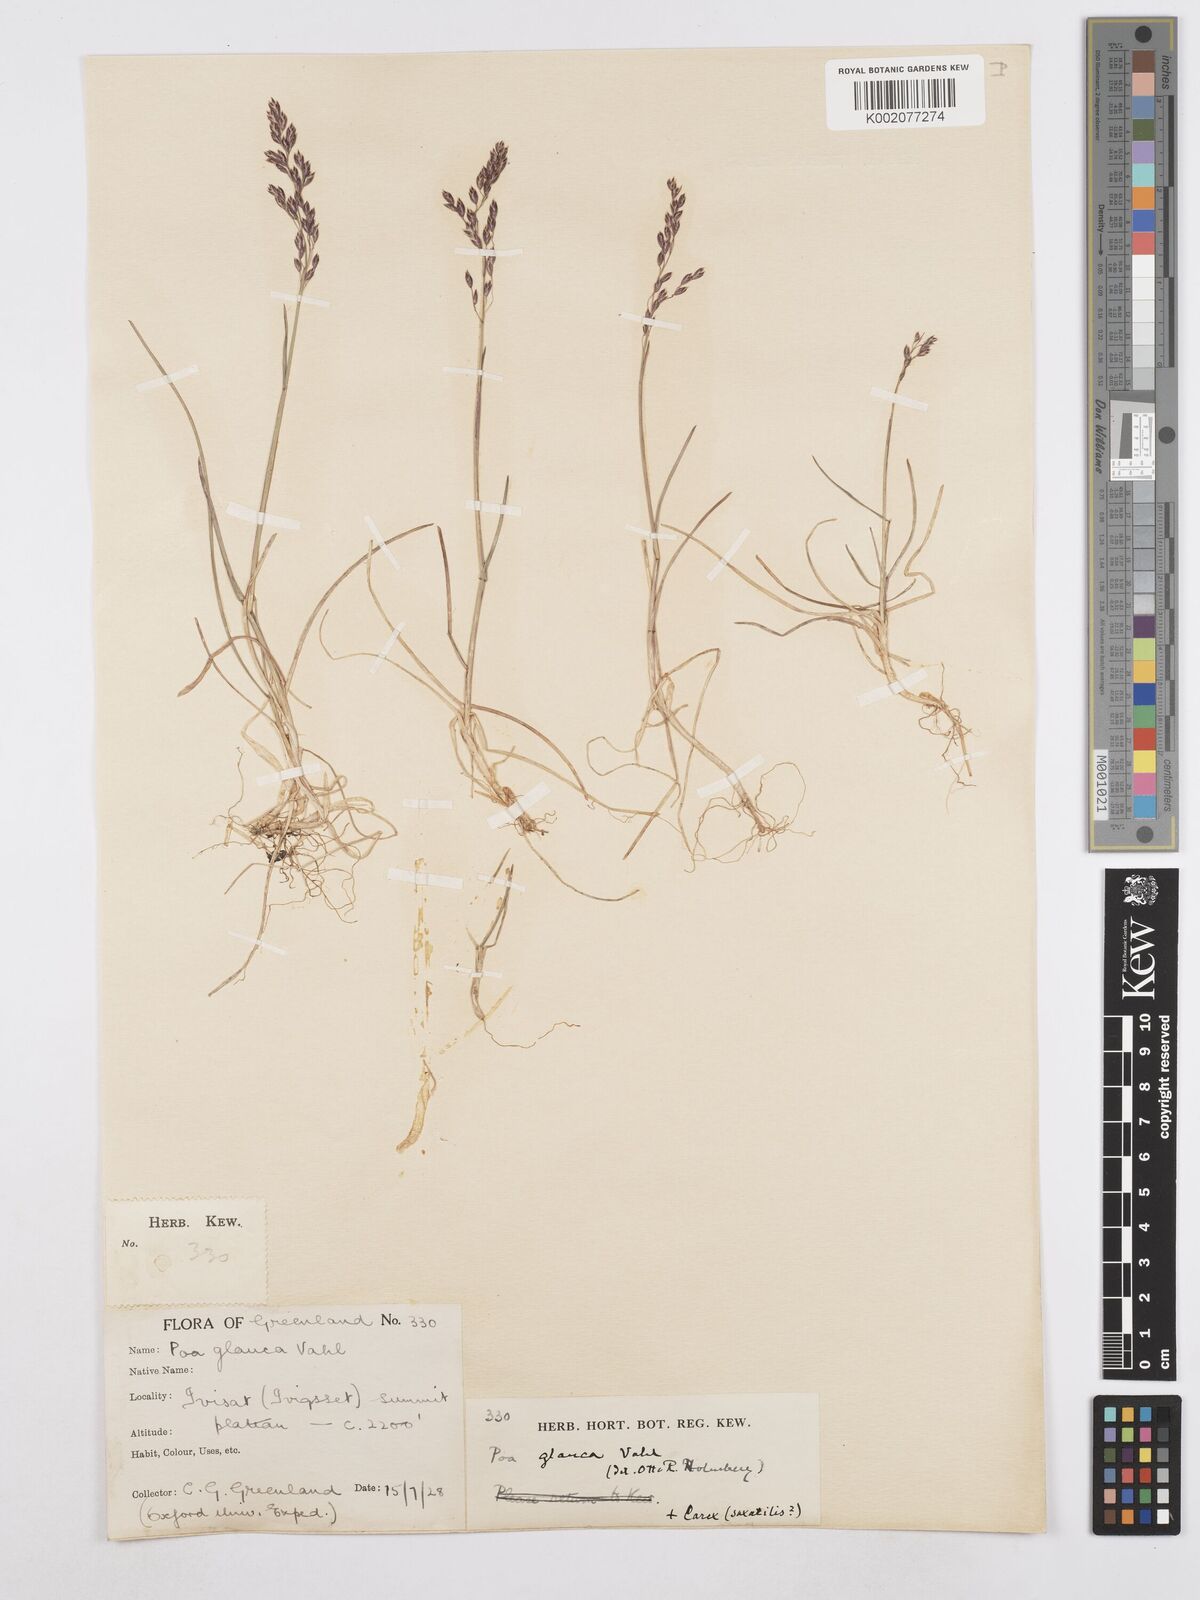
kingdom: Plantae
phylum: Tracheophyta
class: Liliopsida
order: Poales
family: Poaceae
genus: Poa
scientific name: Poa glauca
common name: Glaucous bluegrass
